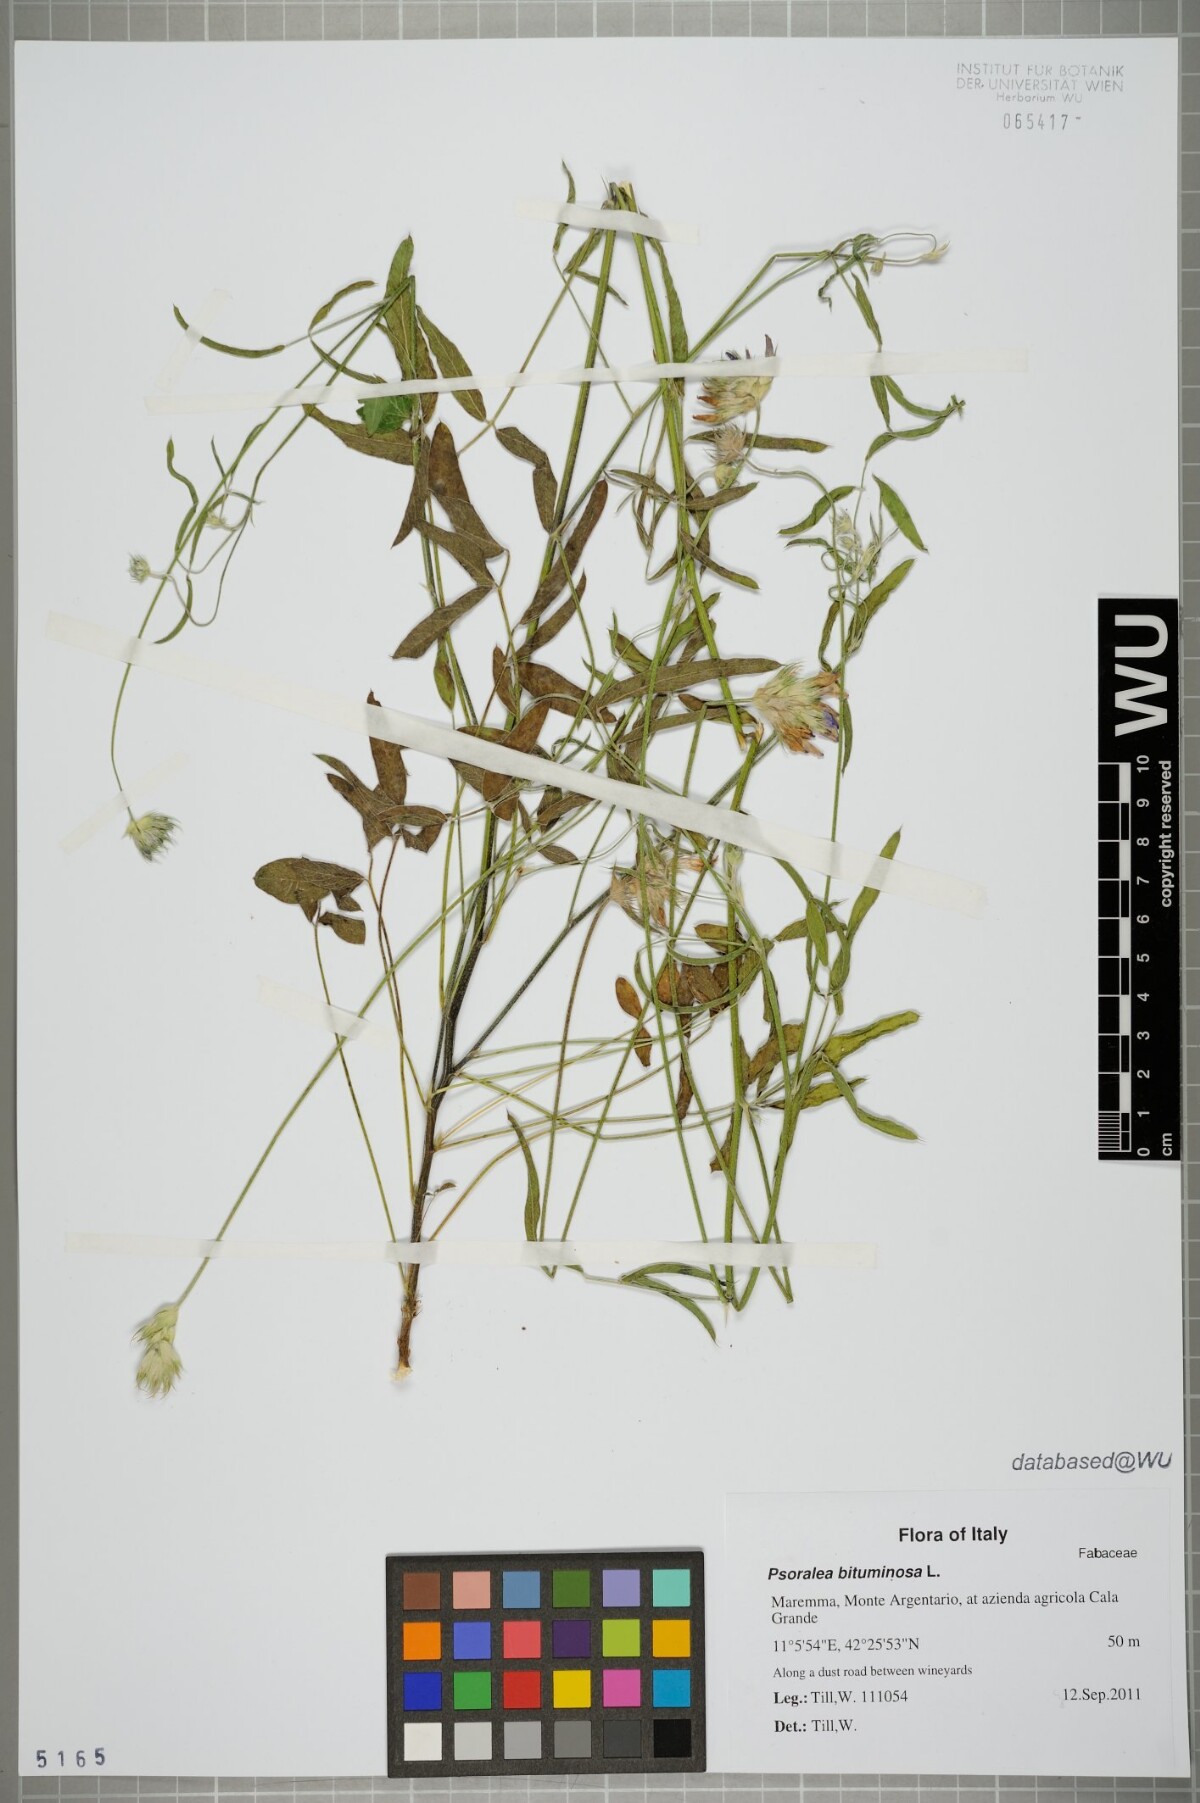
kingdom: Plantae
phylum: Tracheophyta
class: Magnoliopsida
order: Fabales
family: Fabaceae
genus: Bituminaria
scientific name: Bituminaria bituminosa
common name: Arabian pea
